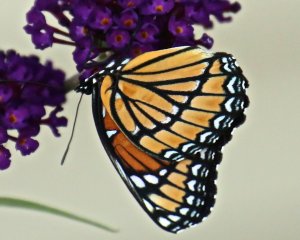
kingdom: Animalia
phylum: Arthropoda
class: Insecta
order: Lepidoptera
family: Nymphalidae
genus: Limenitis
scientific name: Limenitis archippus
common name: Viceroy
